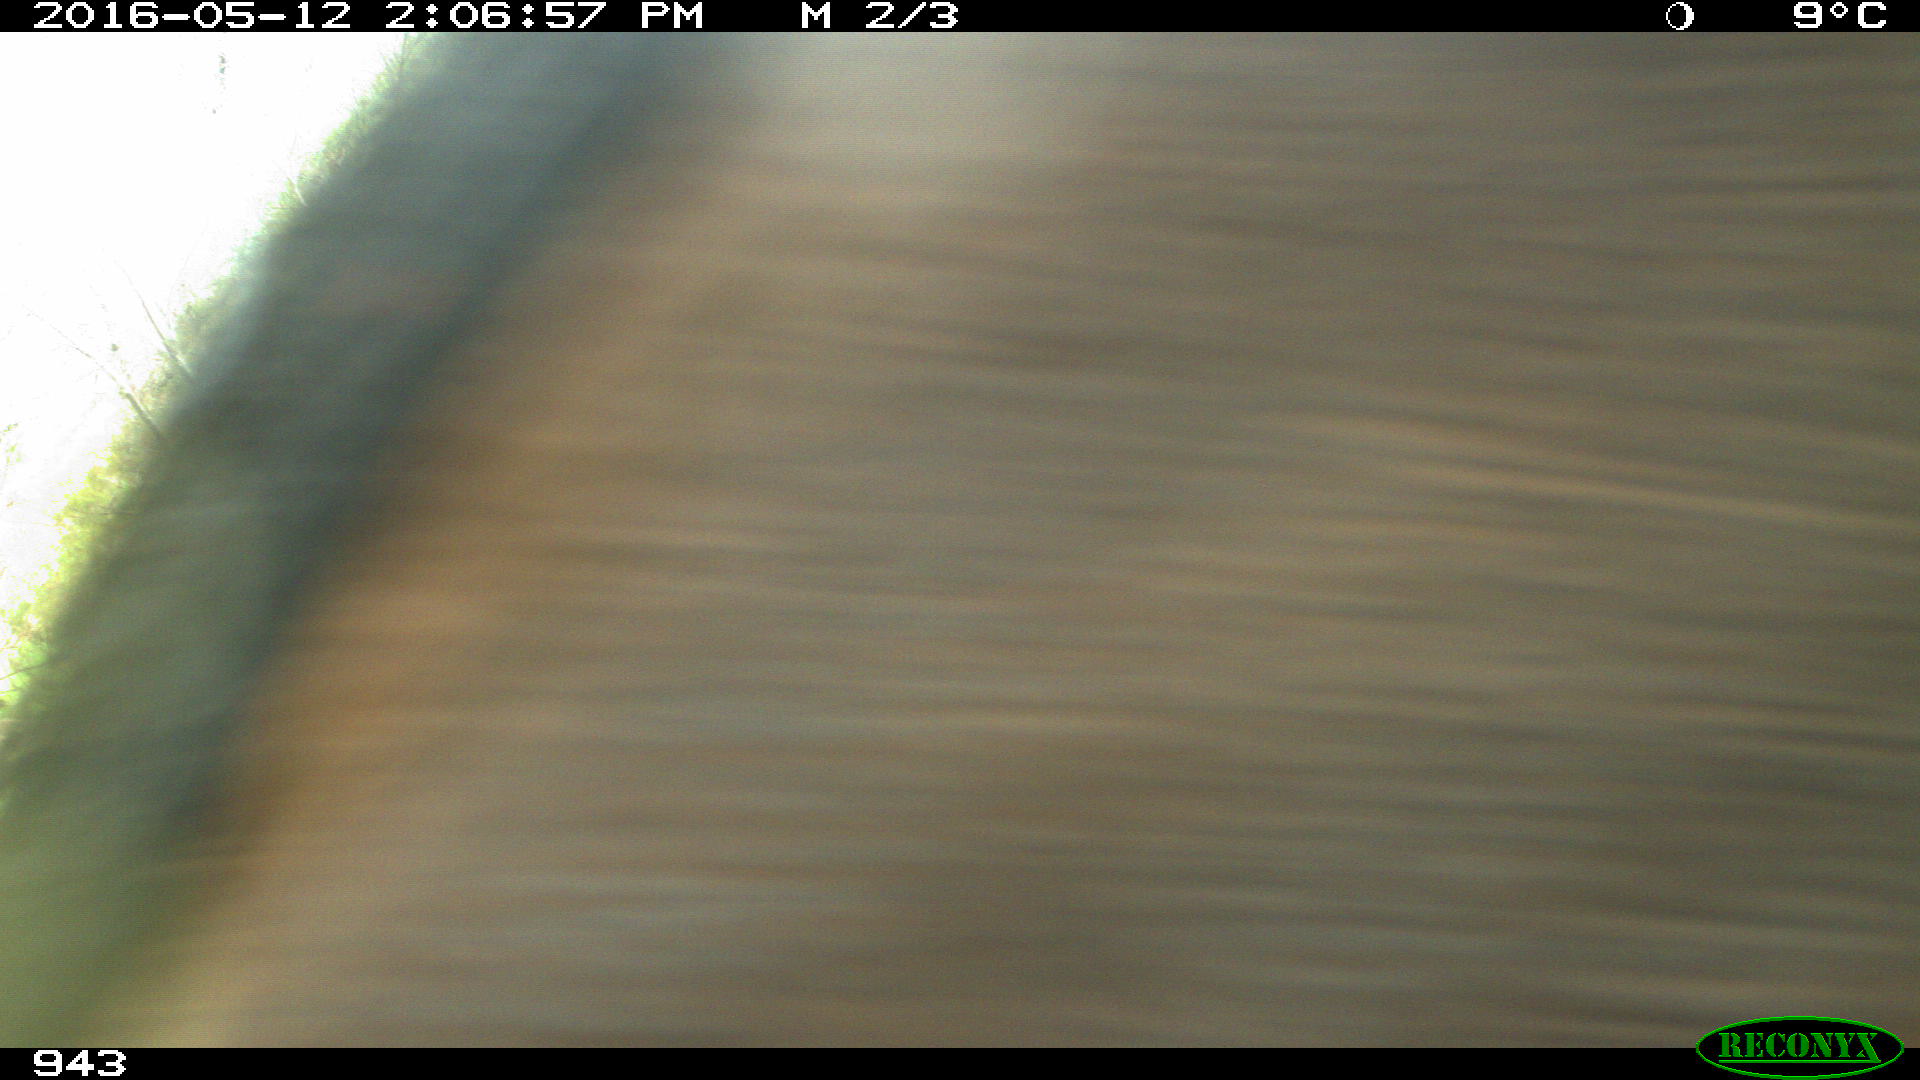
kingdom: Animalia
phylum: Chordata
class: Mammalia
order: Perissodactyla
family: Equidae
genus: Equus
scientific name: Equus caballus
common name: Horse
